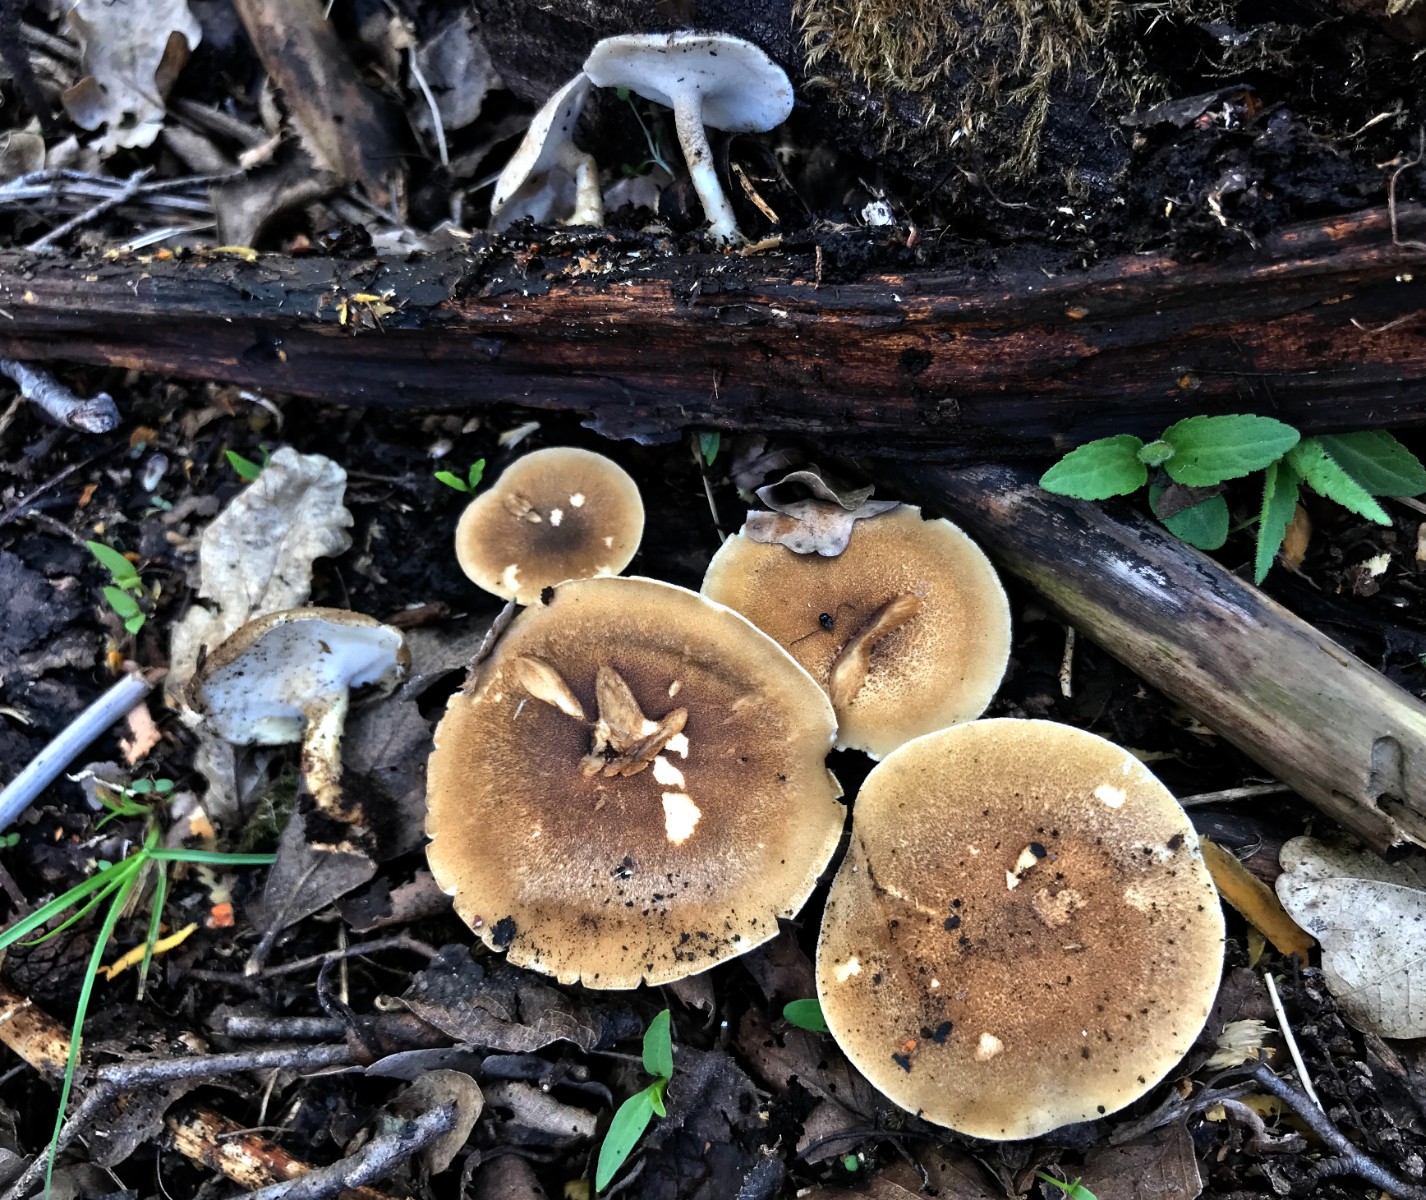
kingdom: Fungi
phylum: Basidiomycota
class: Agaricomycetes
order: Polyporales
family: Polyporaceae
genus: Lentinus
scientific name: Lentinus substrictus
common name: forårs-stilkporesvamp
